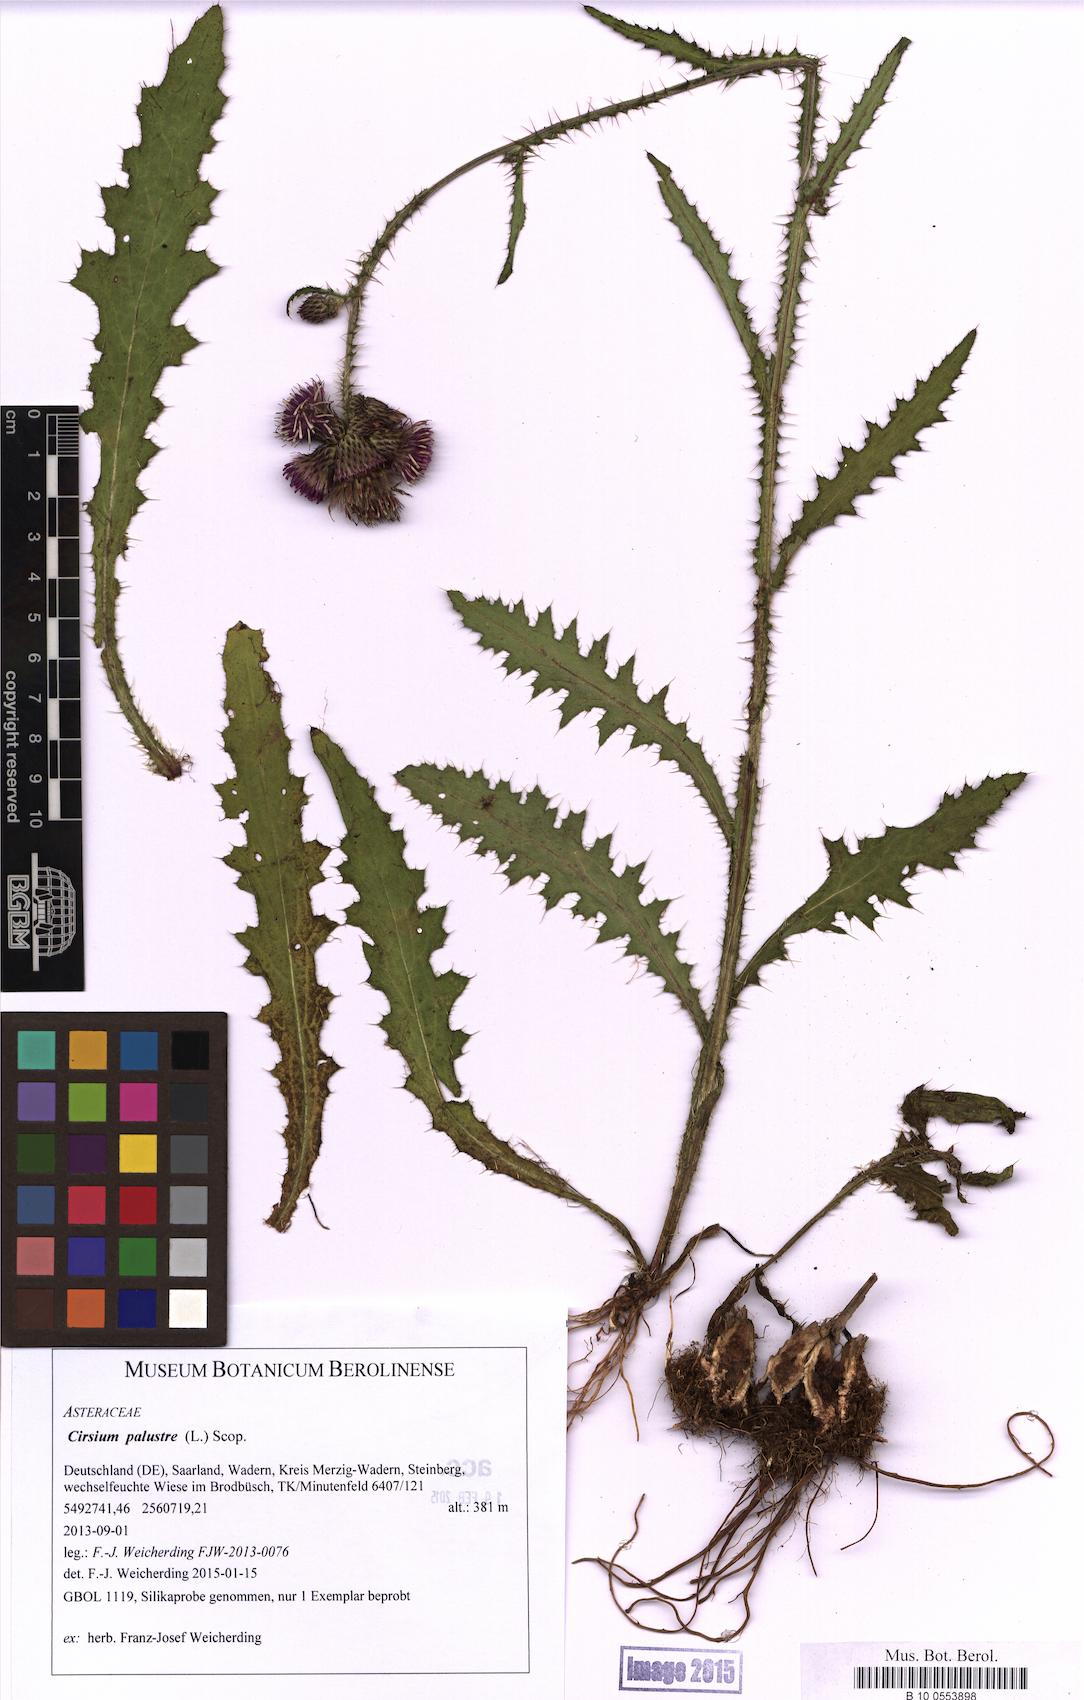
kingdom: Plantae
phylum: Tracheophyta
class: Magnoliopsida
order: Asterales
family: Asteraceae
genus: Cirsium
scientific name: Cirsium palustre
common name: Marsh thistle
